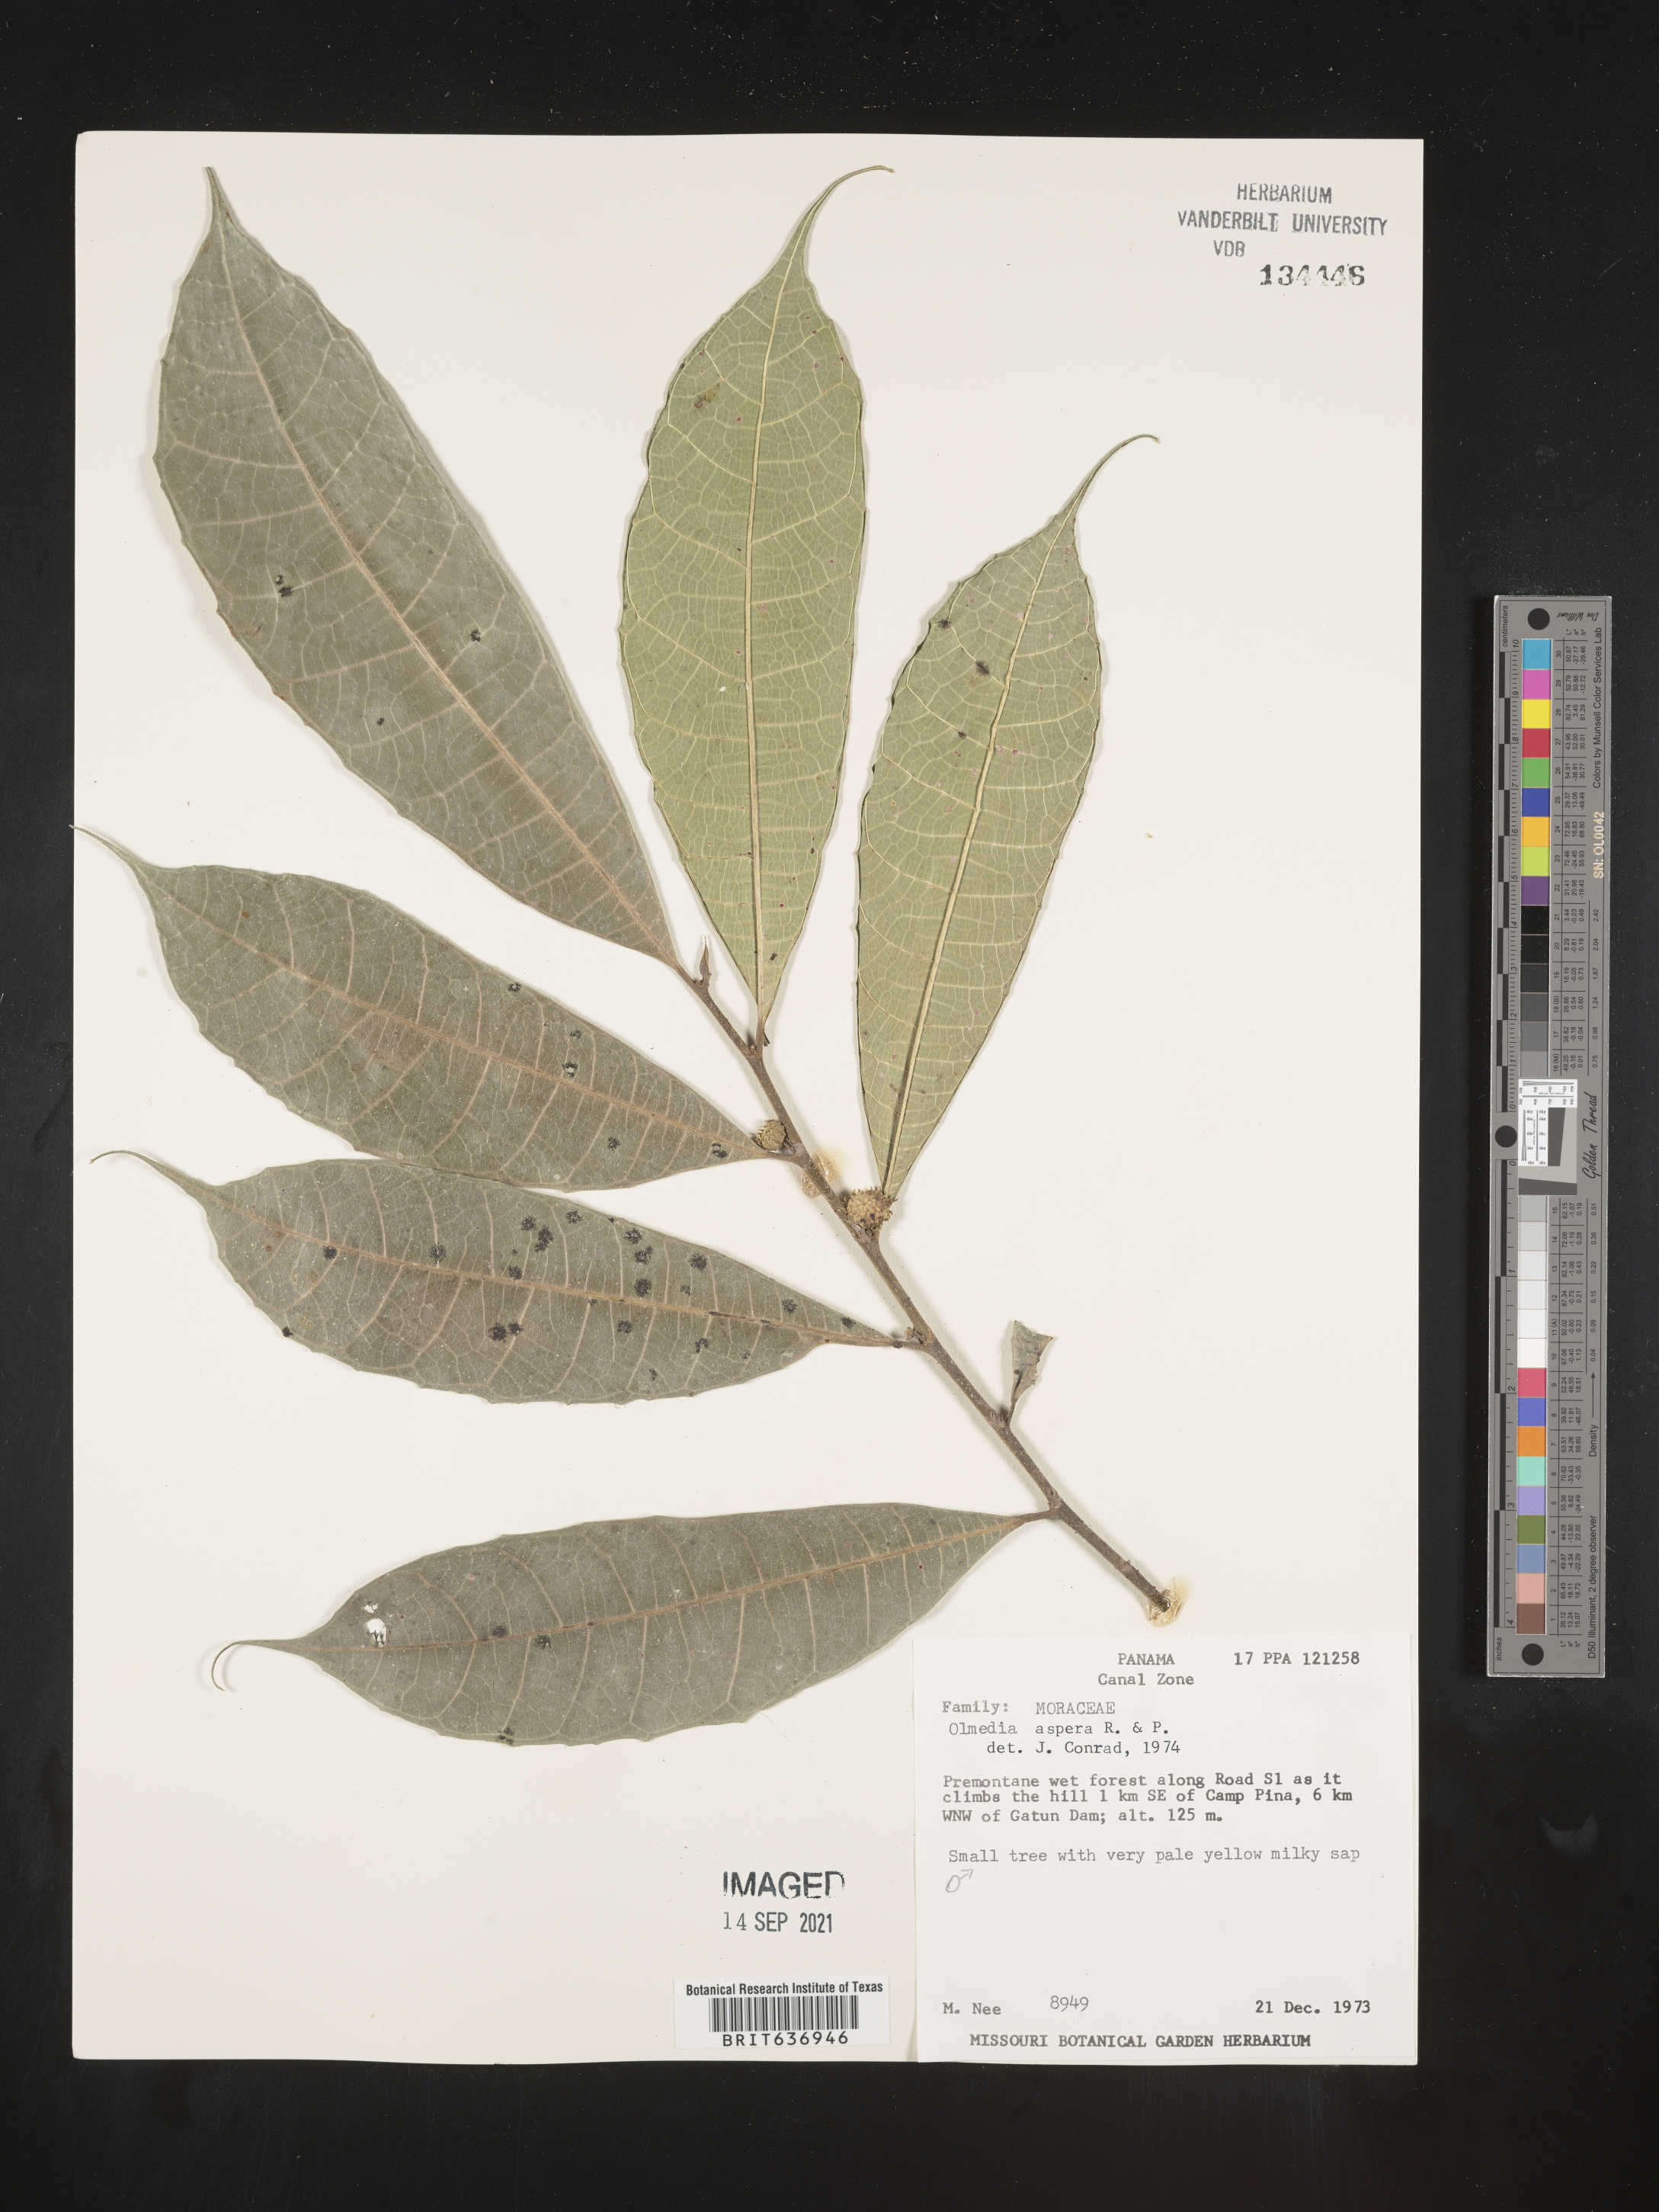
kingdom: Plantae
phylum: Tracheophyta
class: Magnoliopsida
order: Rosales
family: Moraceae
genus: Olmedia
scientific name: Olmedia
